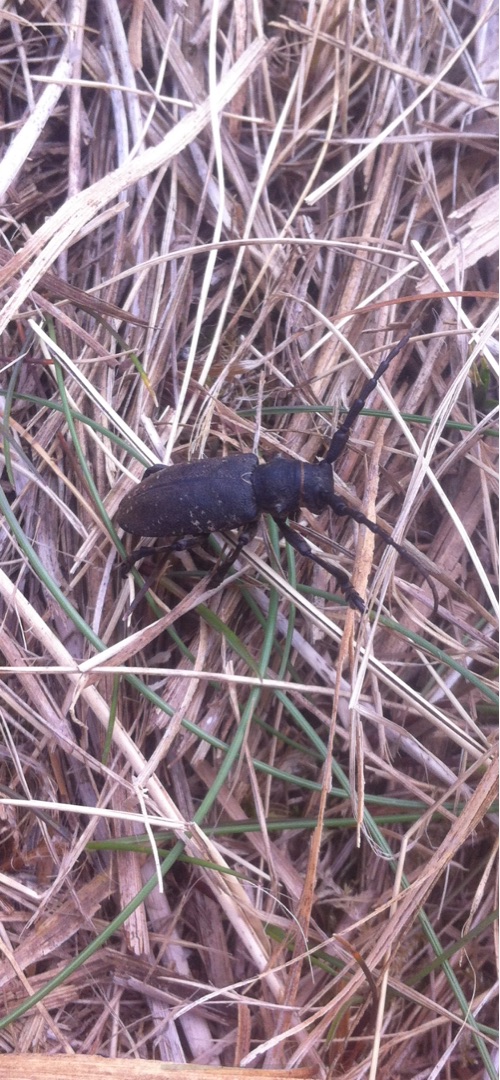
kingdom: Animalia
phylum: Arthropoda
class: Insecta
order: Coleoptera
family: Cerambycidae
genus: Lamia
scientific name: Lamia textor
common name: Væver
